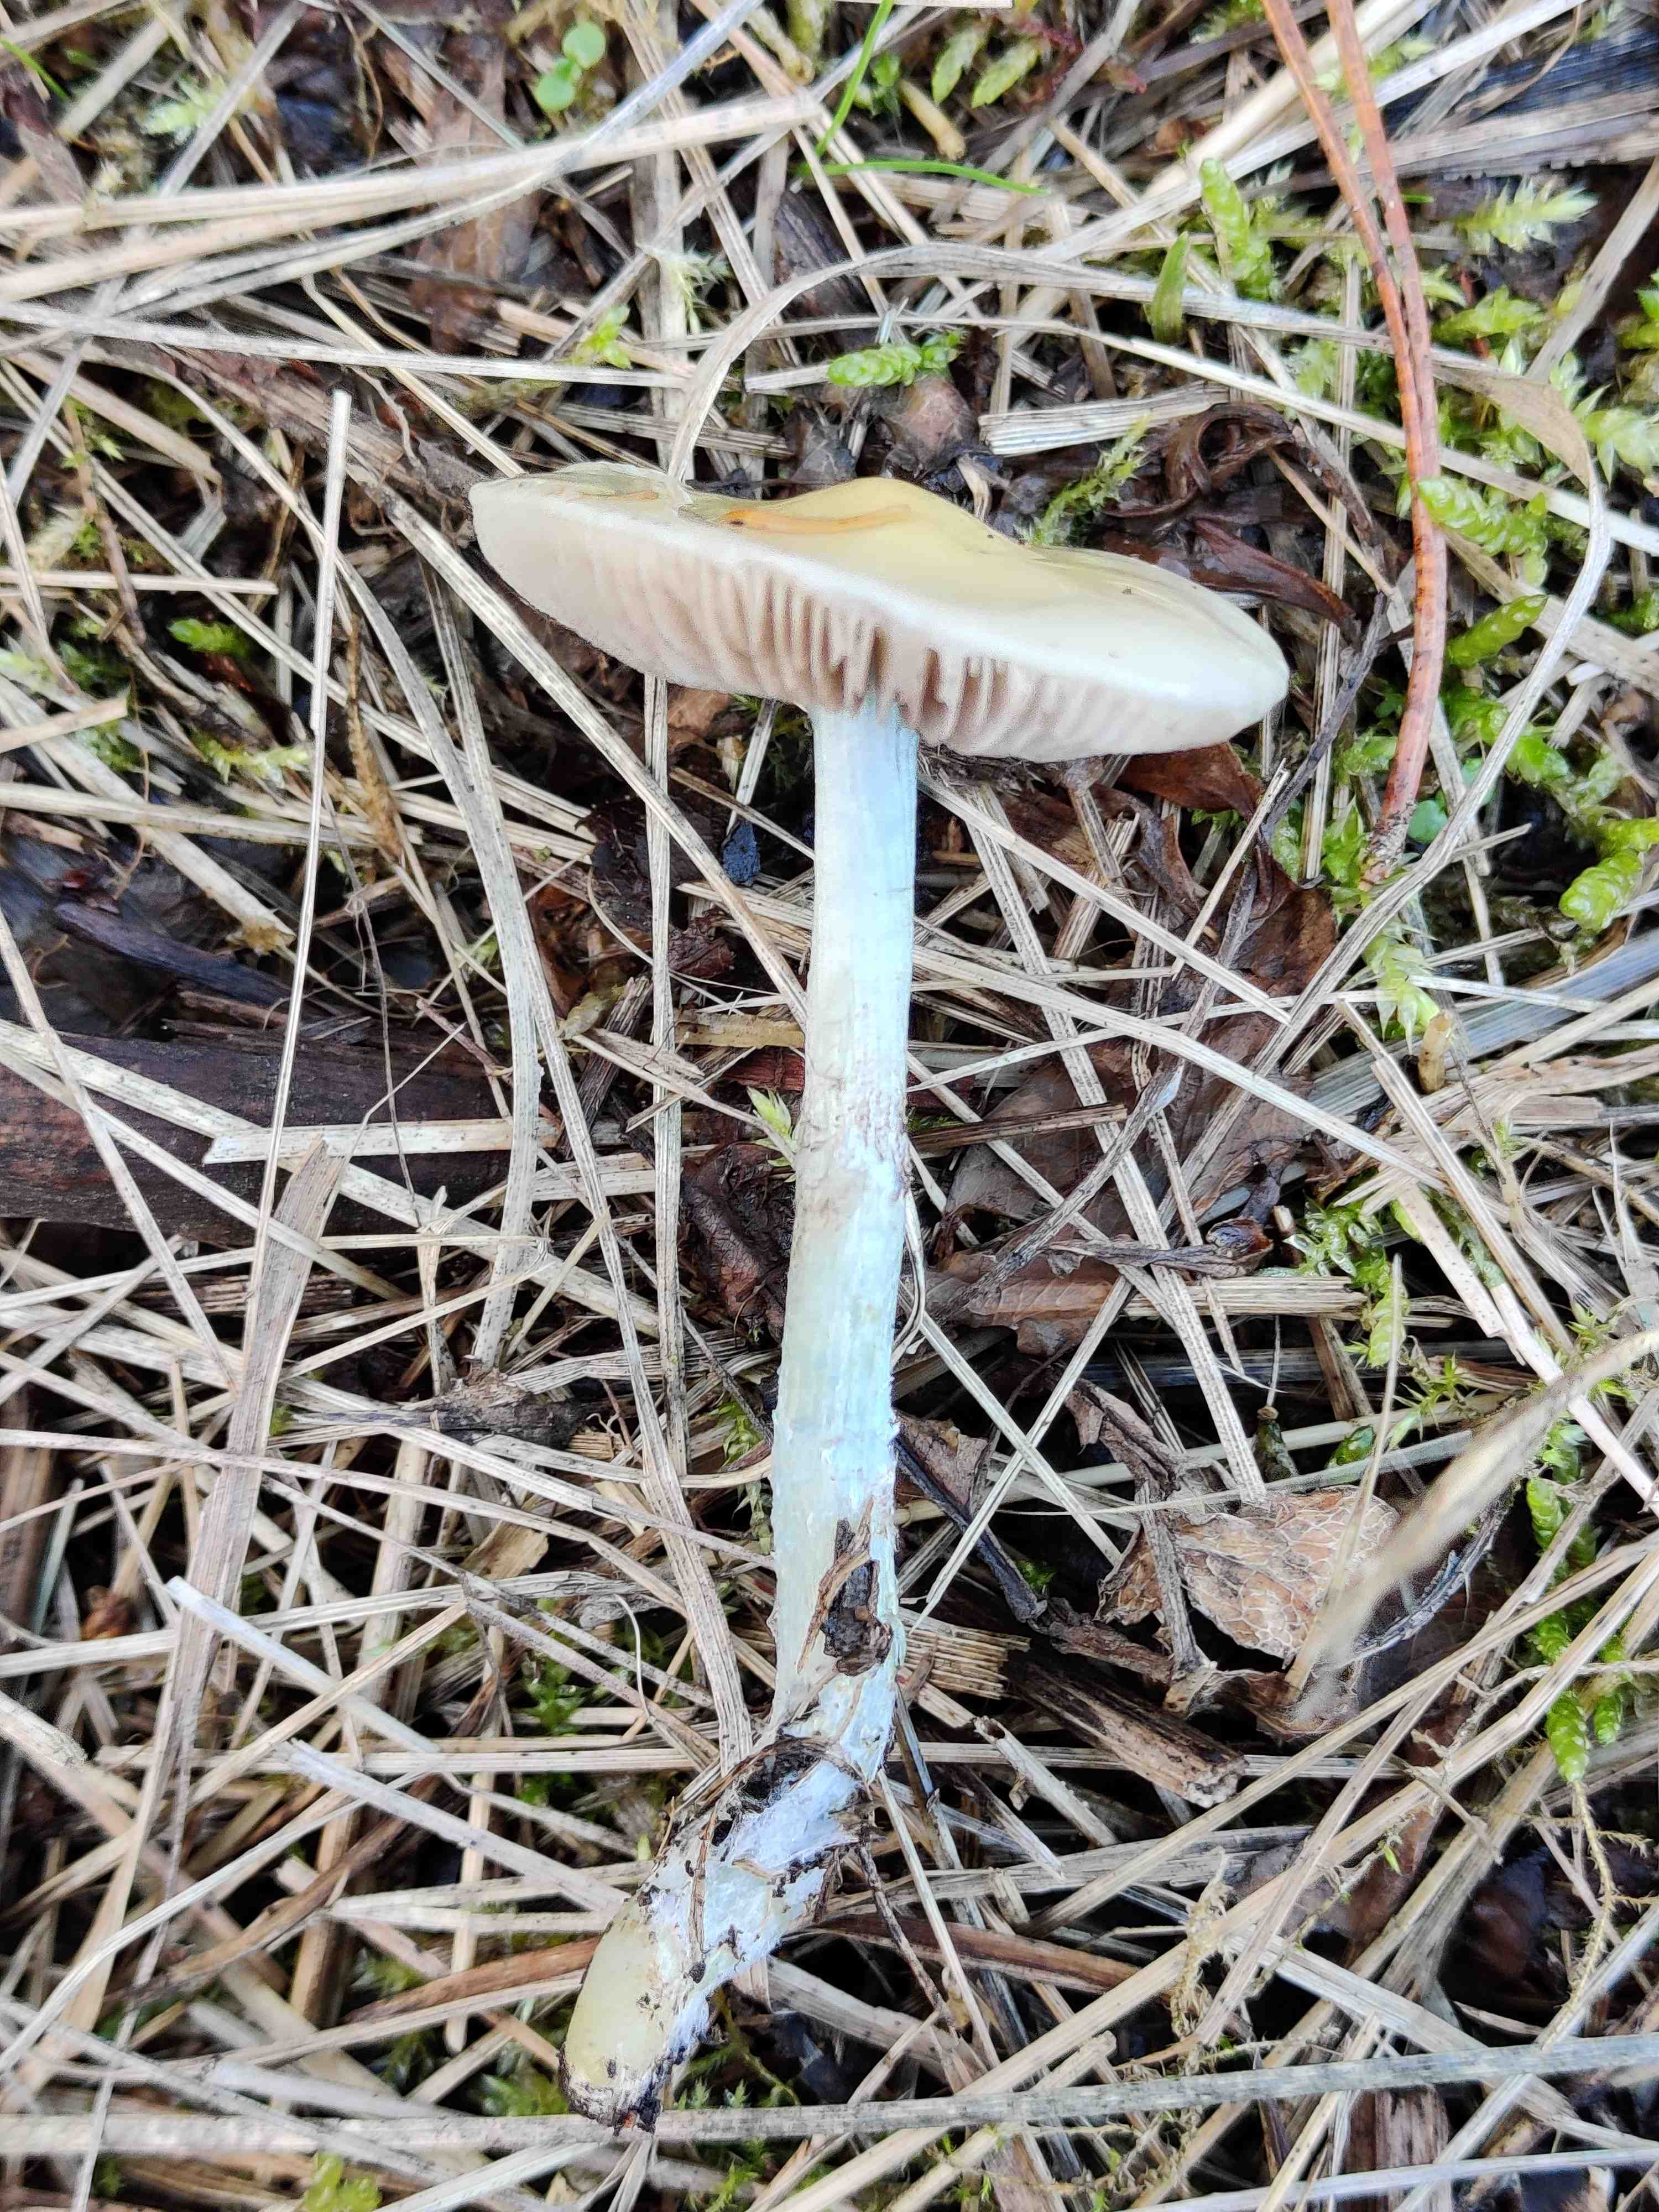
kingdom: Fungi
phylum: Basidiomycota
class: Agaricomycetes
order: Agaricales
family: Strophariaceae
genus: Stropharia
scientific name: Stropharia cyanea
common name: blågrøn bredblad
